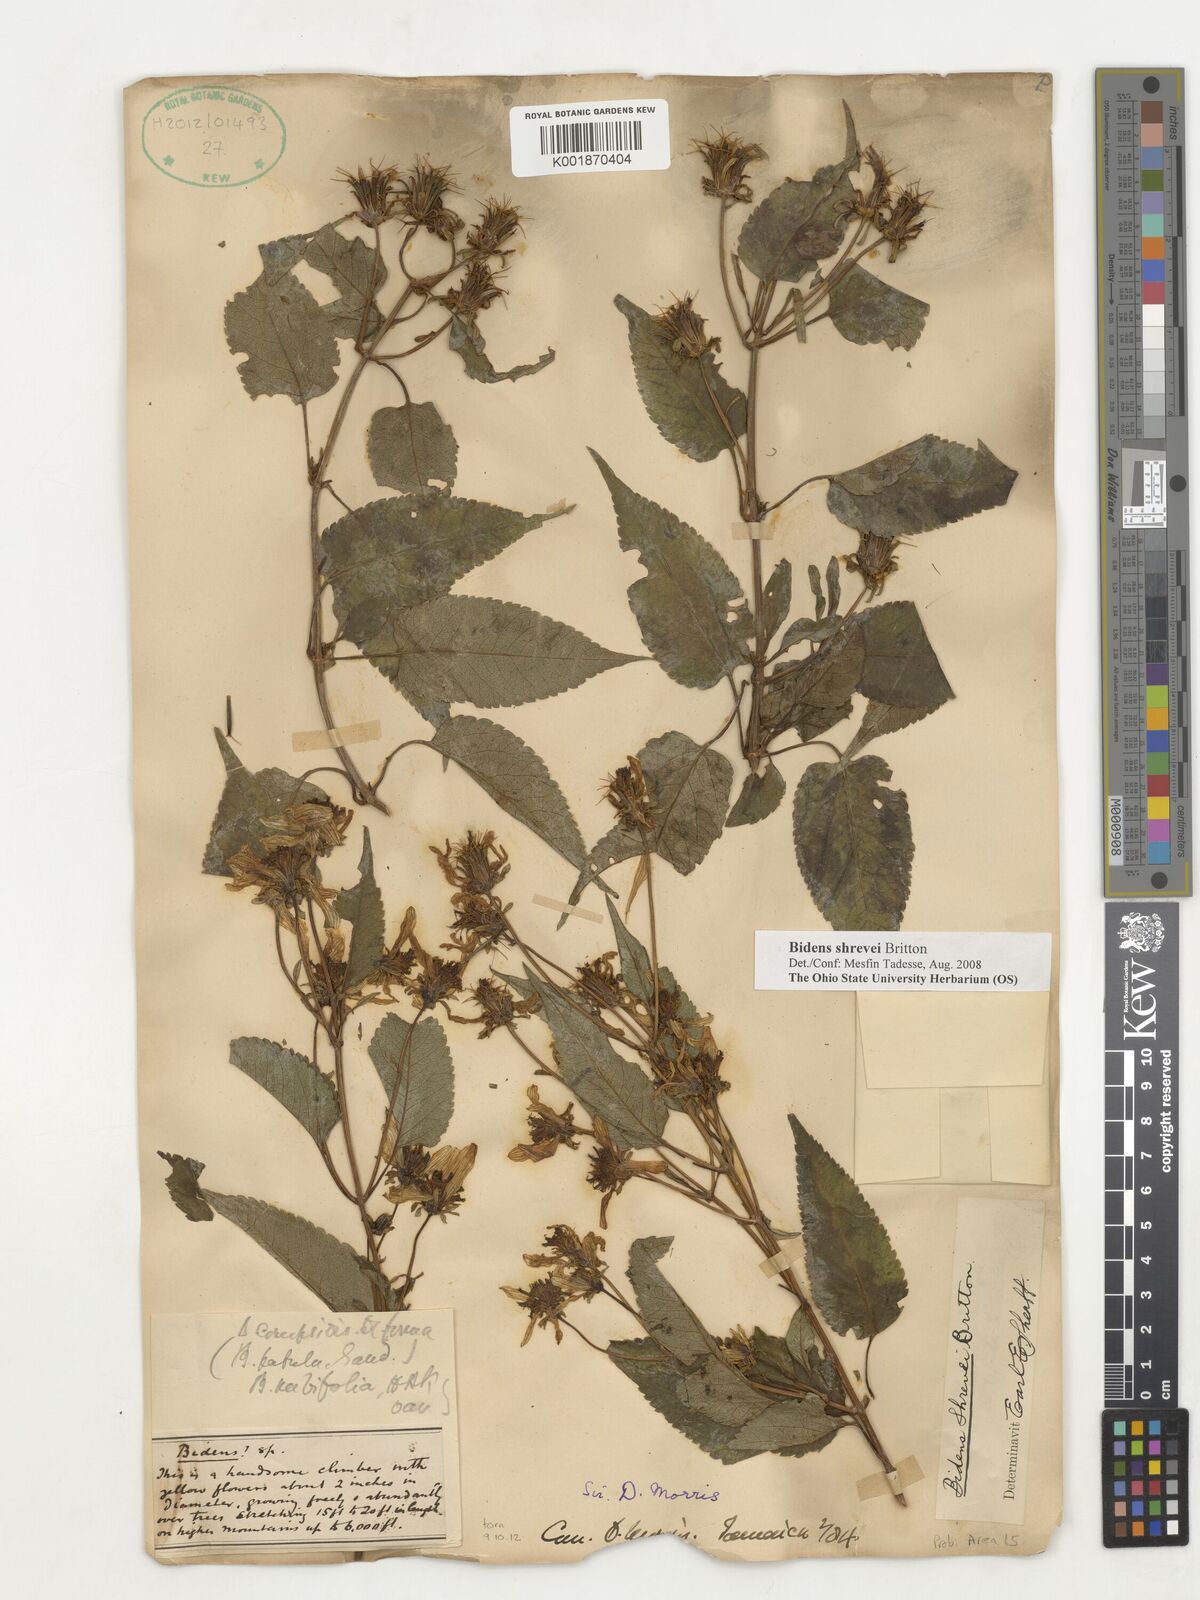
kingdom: Plantae
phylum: Tracheophyta
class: Magnoliopsida
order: Asterales
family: Asteraceae
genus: Bidens
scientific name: Bidens shrevei
